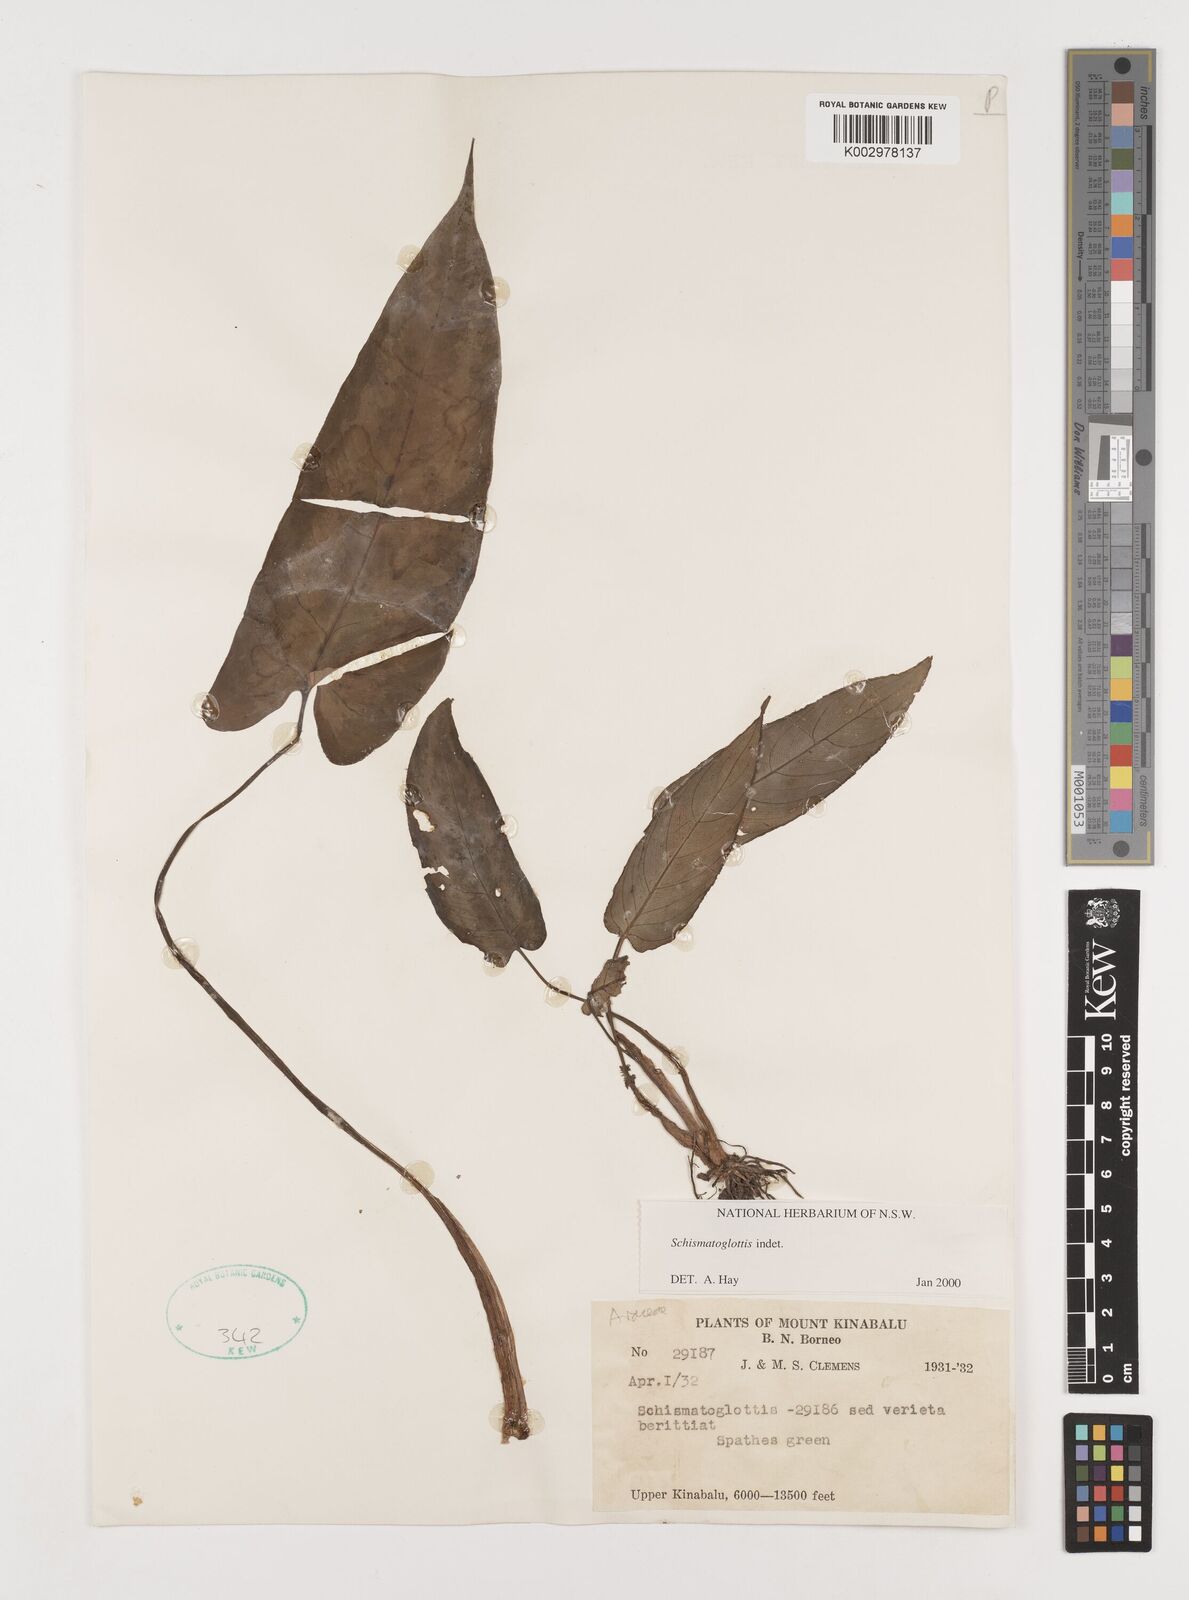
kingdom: Plantae
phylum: Tracheophyta
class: Liliopsida
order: Alismatales
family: Araceae
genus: Schismatoglottis
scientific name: Schismatoglottis
